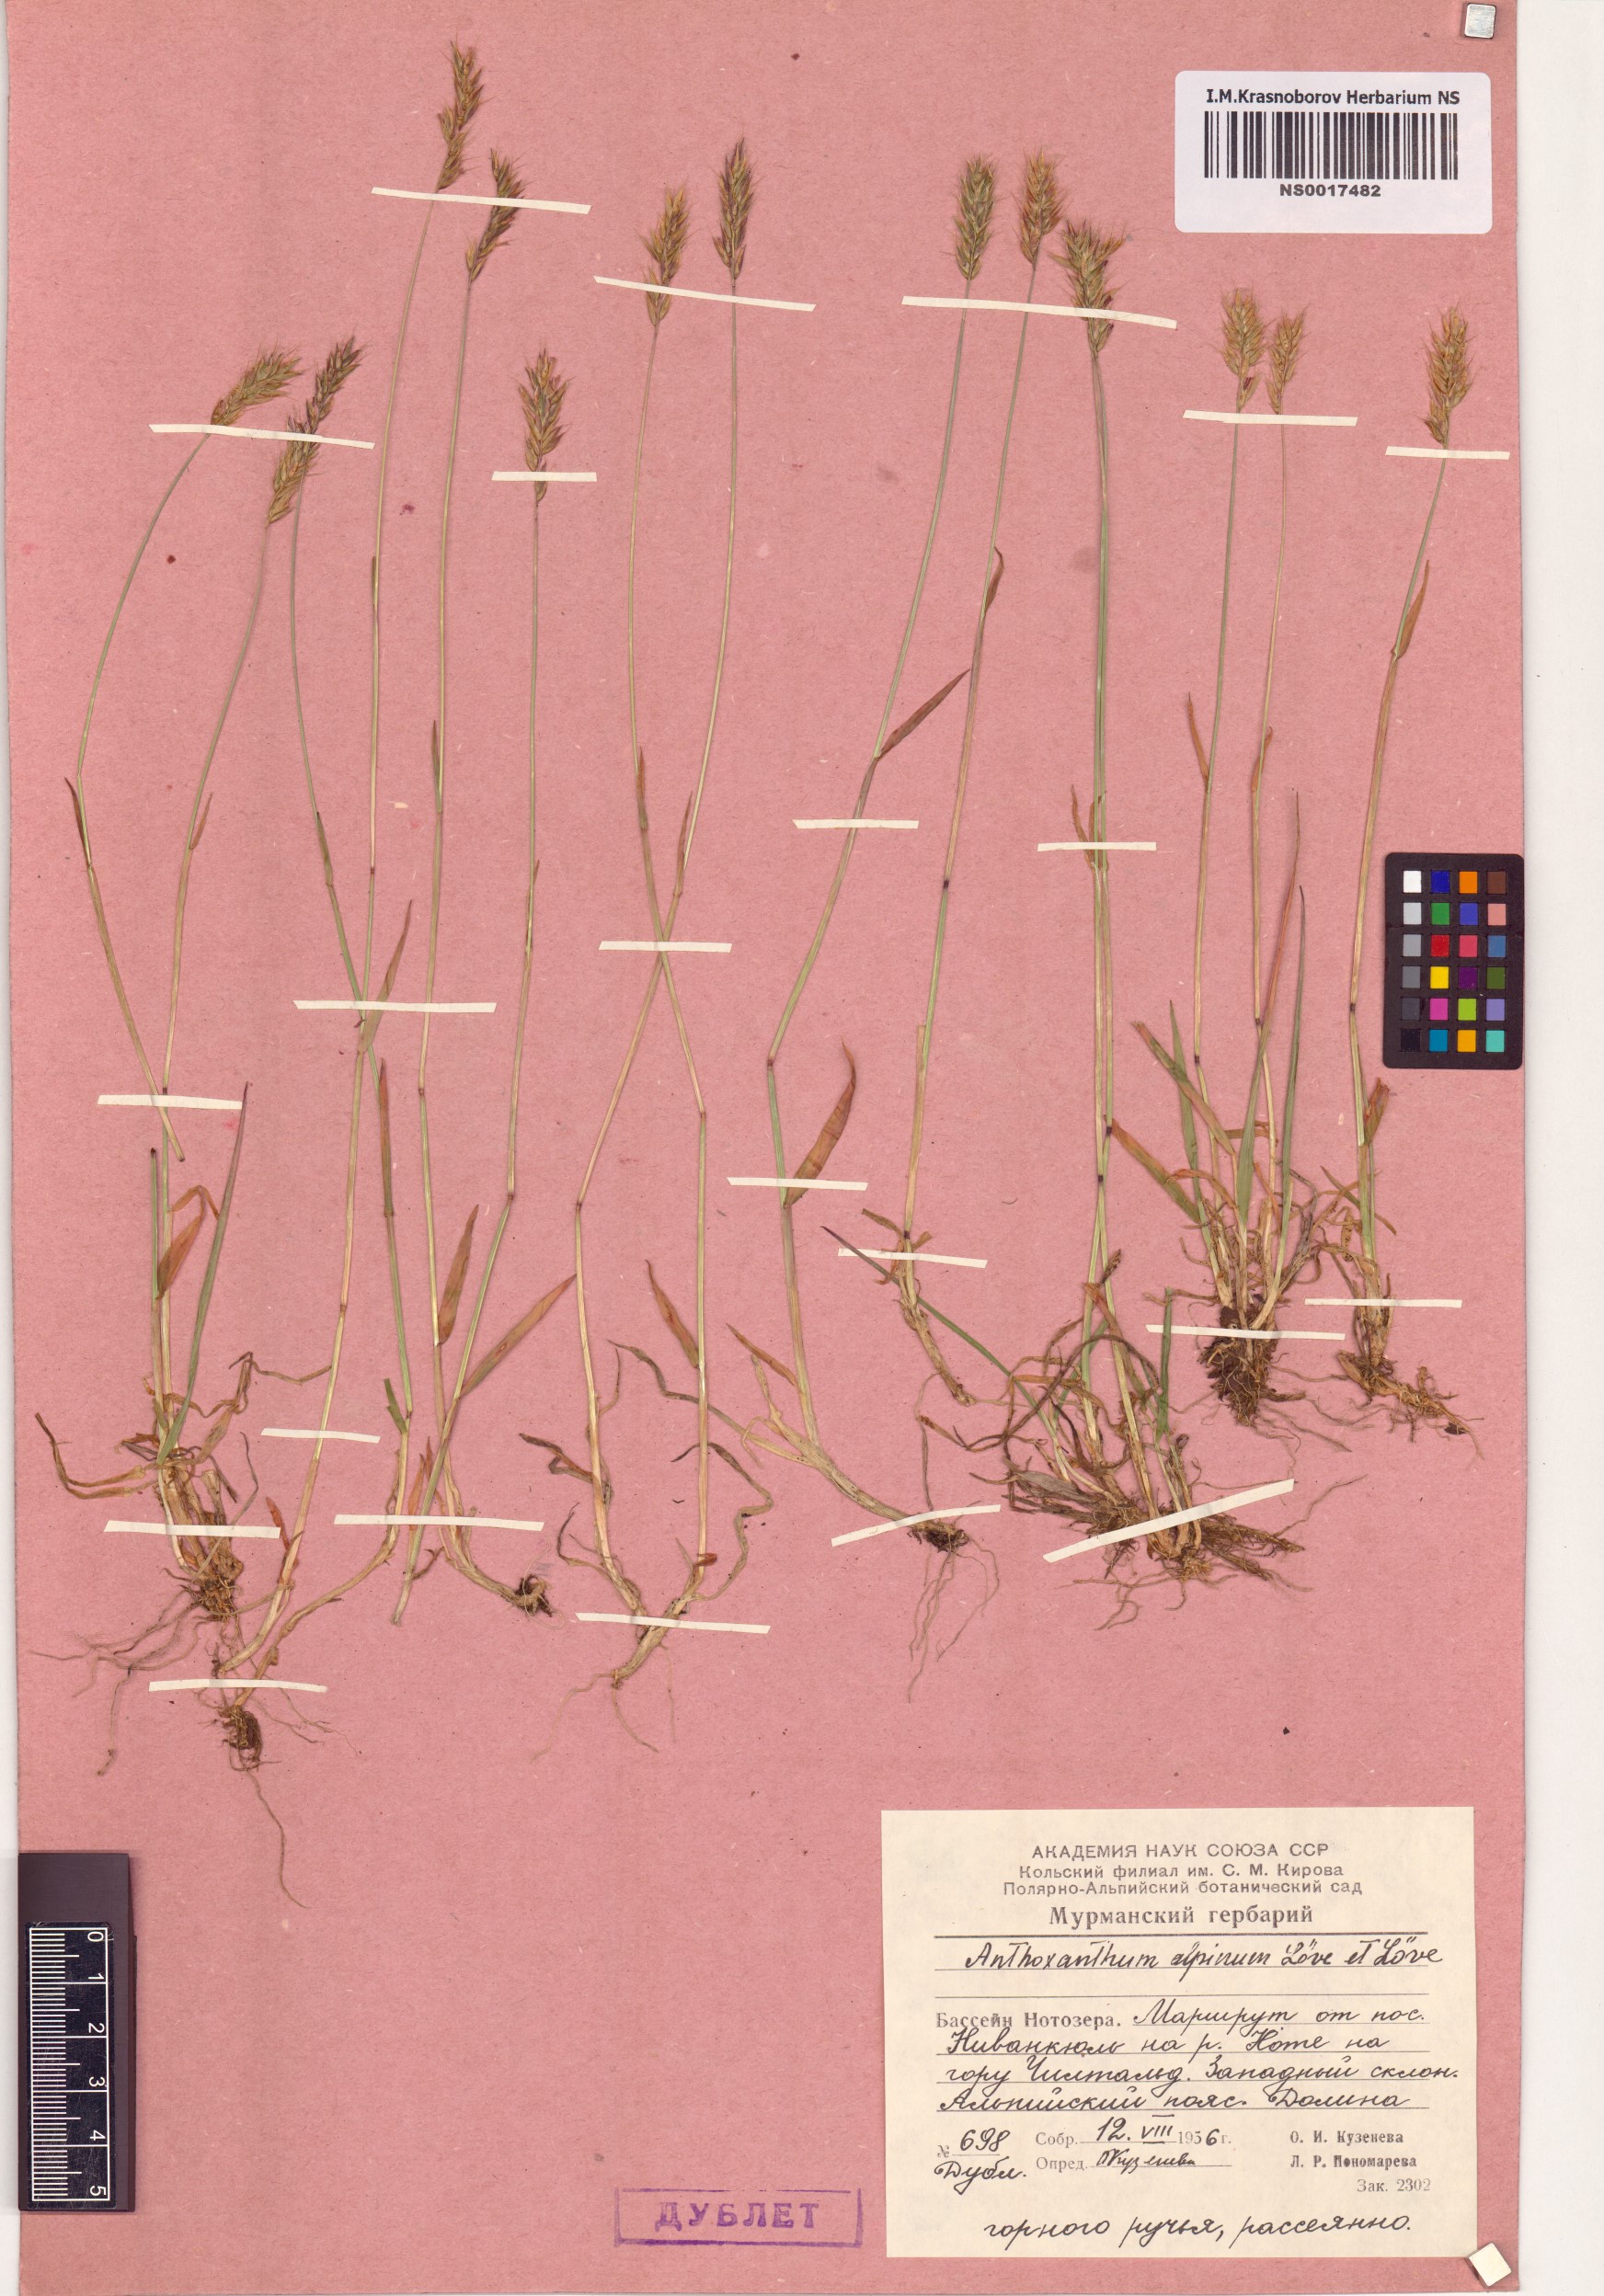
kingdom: Plantae
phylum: Tracheophyta
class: Liliopsida
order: Poales
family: Poaceae
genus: Anthoxanthum
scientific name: Anthoxanthum nipponicum
